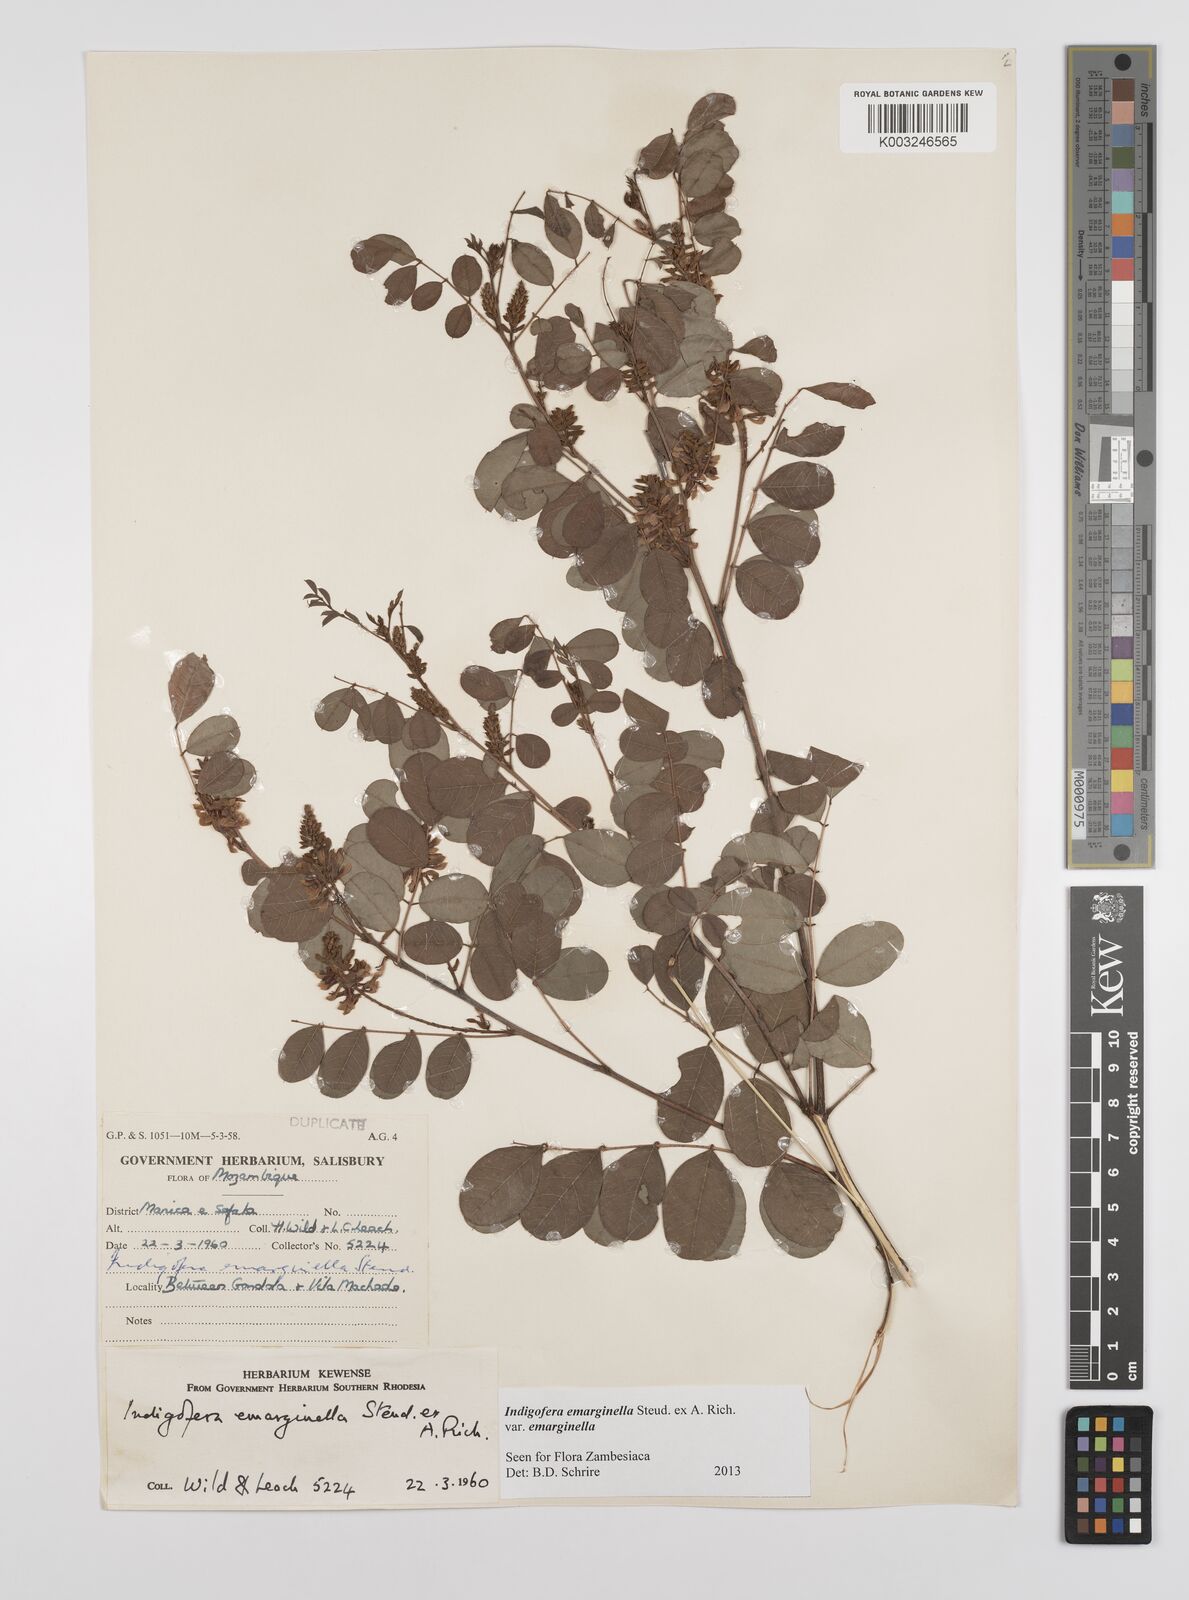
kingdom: Plantae
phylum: Tracheophyta
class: Magnoliopsida
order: Fabales
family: Fabaceae
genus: Indigofera
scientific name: Indigofera emarginella
